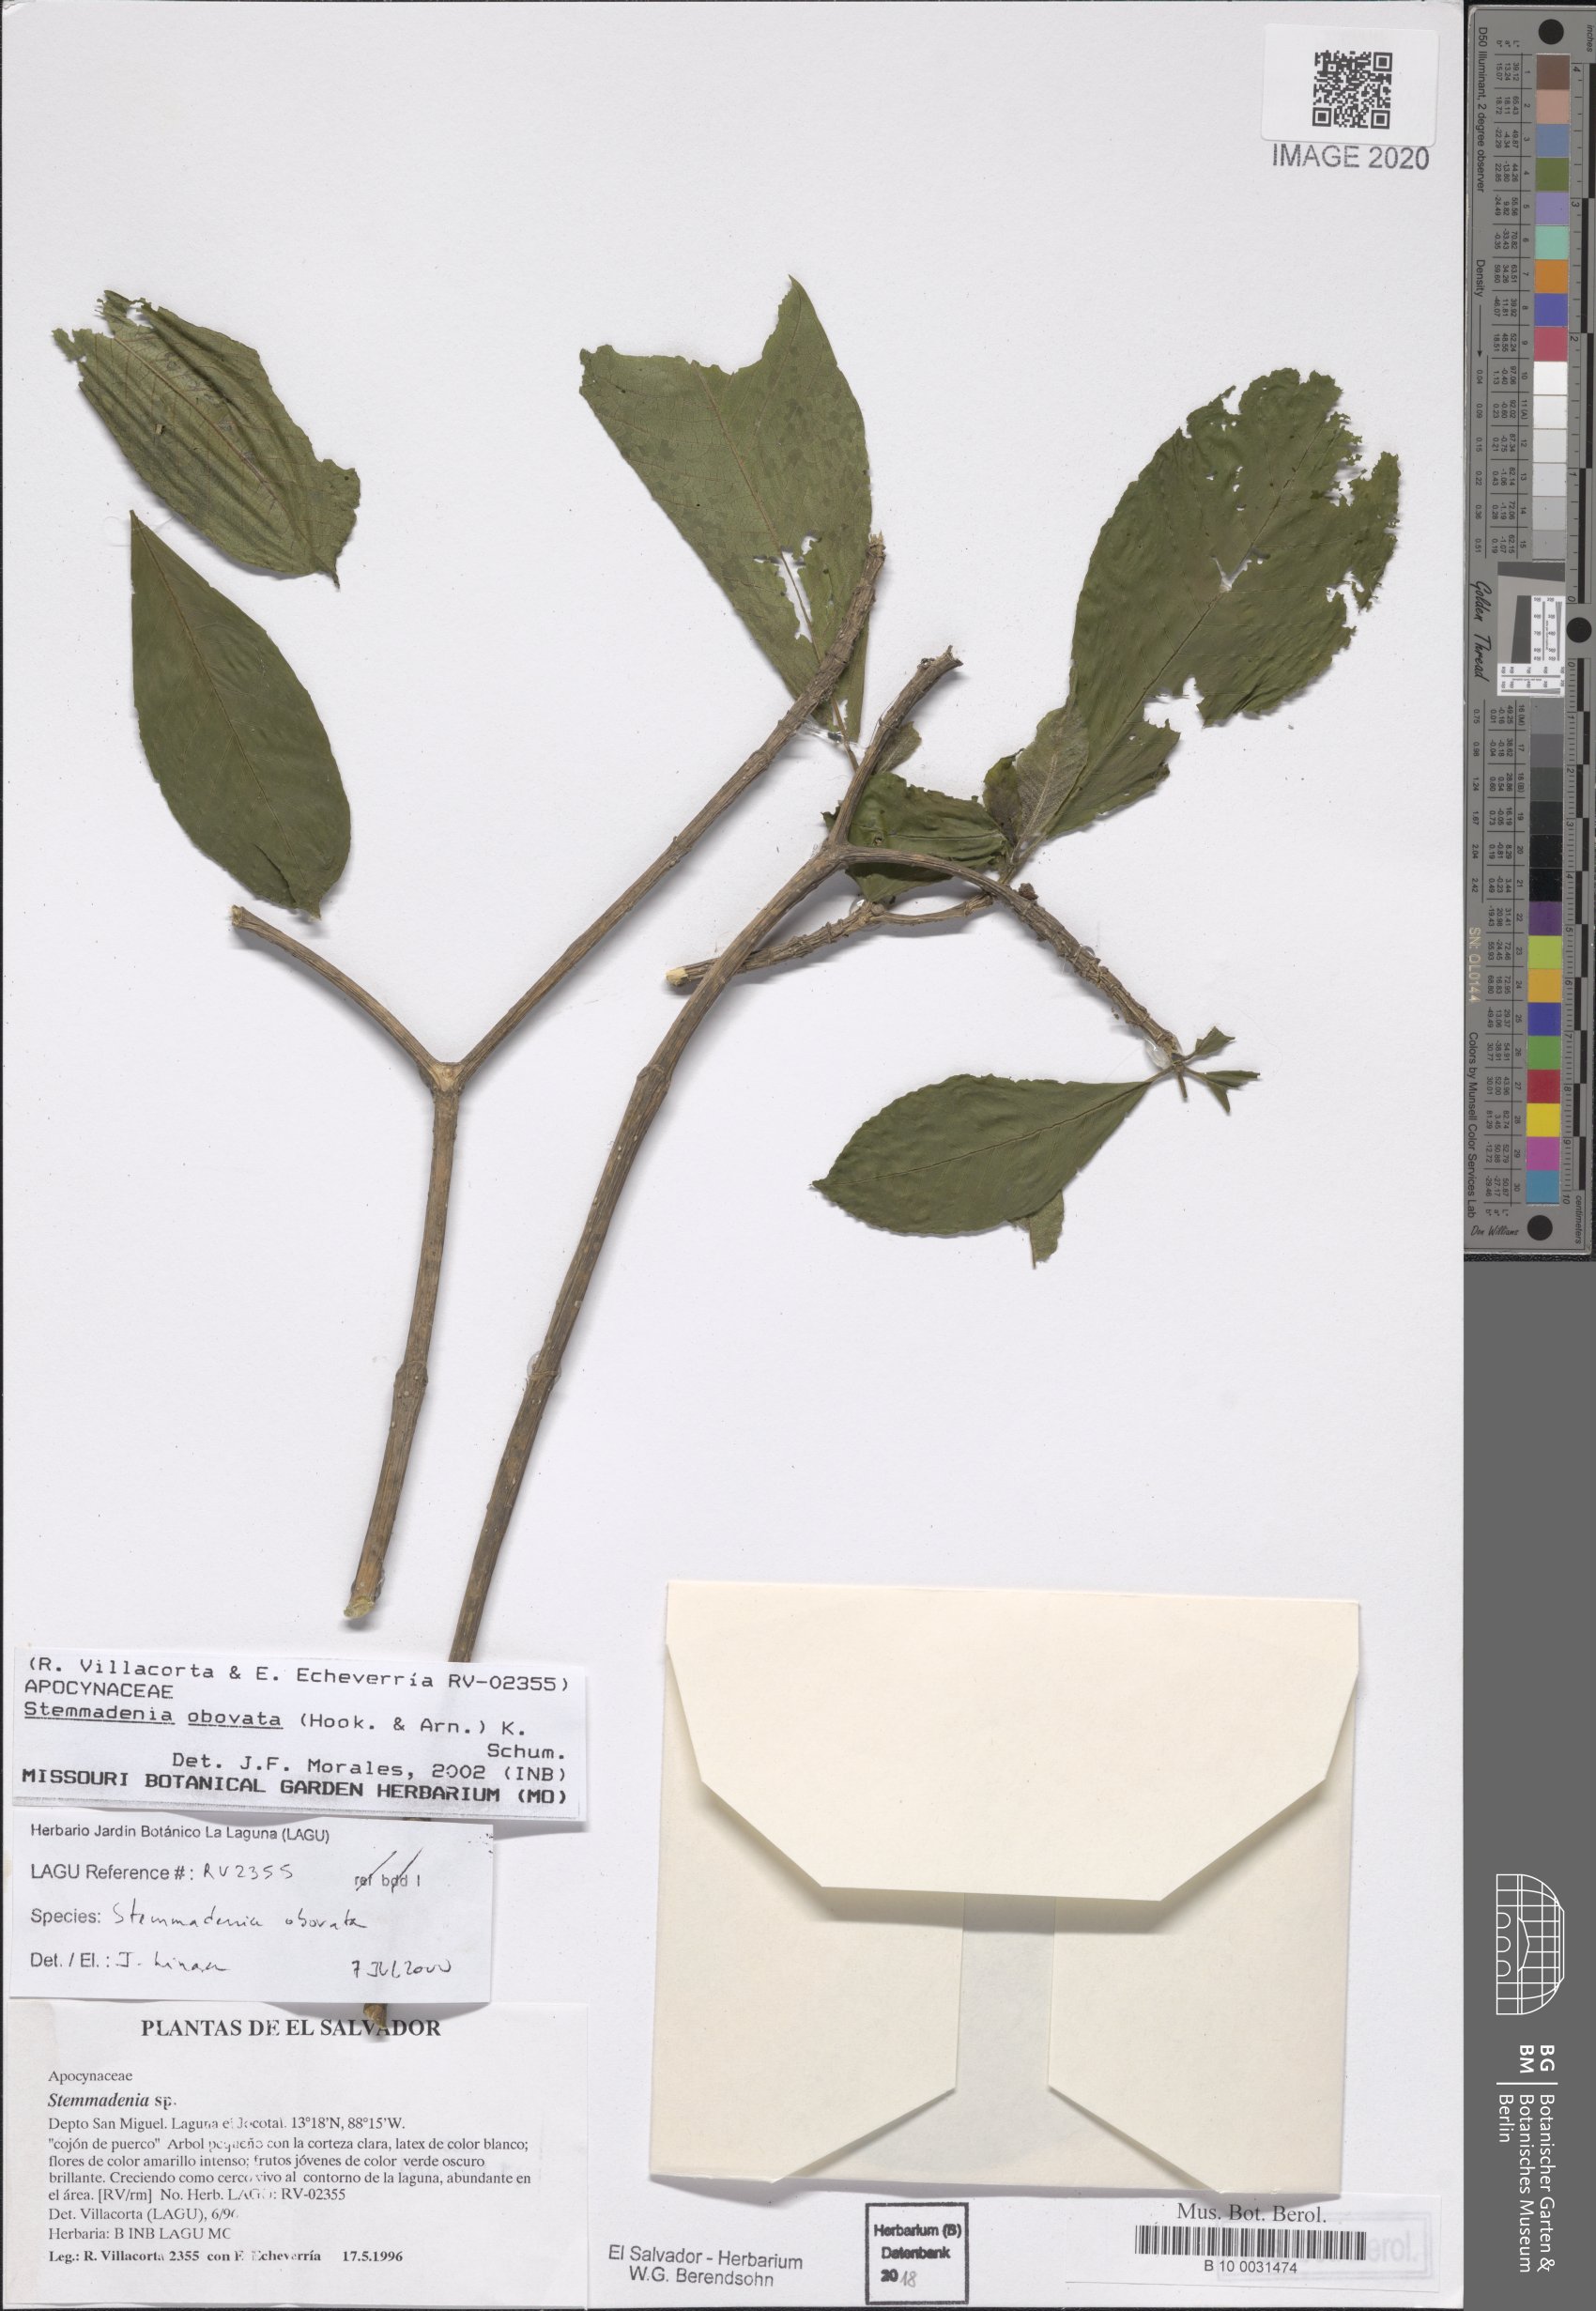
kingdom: Plantae
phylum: Tracheophyta
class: Magnoliopsida
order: Gentianales
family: Apocynaceae
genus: Tabernaemontana
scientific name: Tabernaemontana glabra
